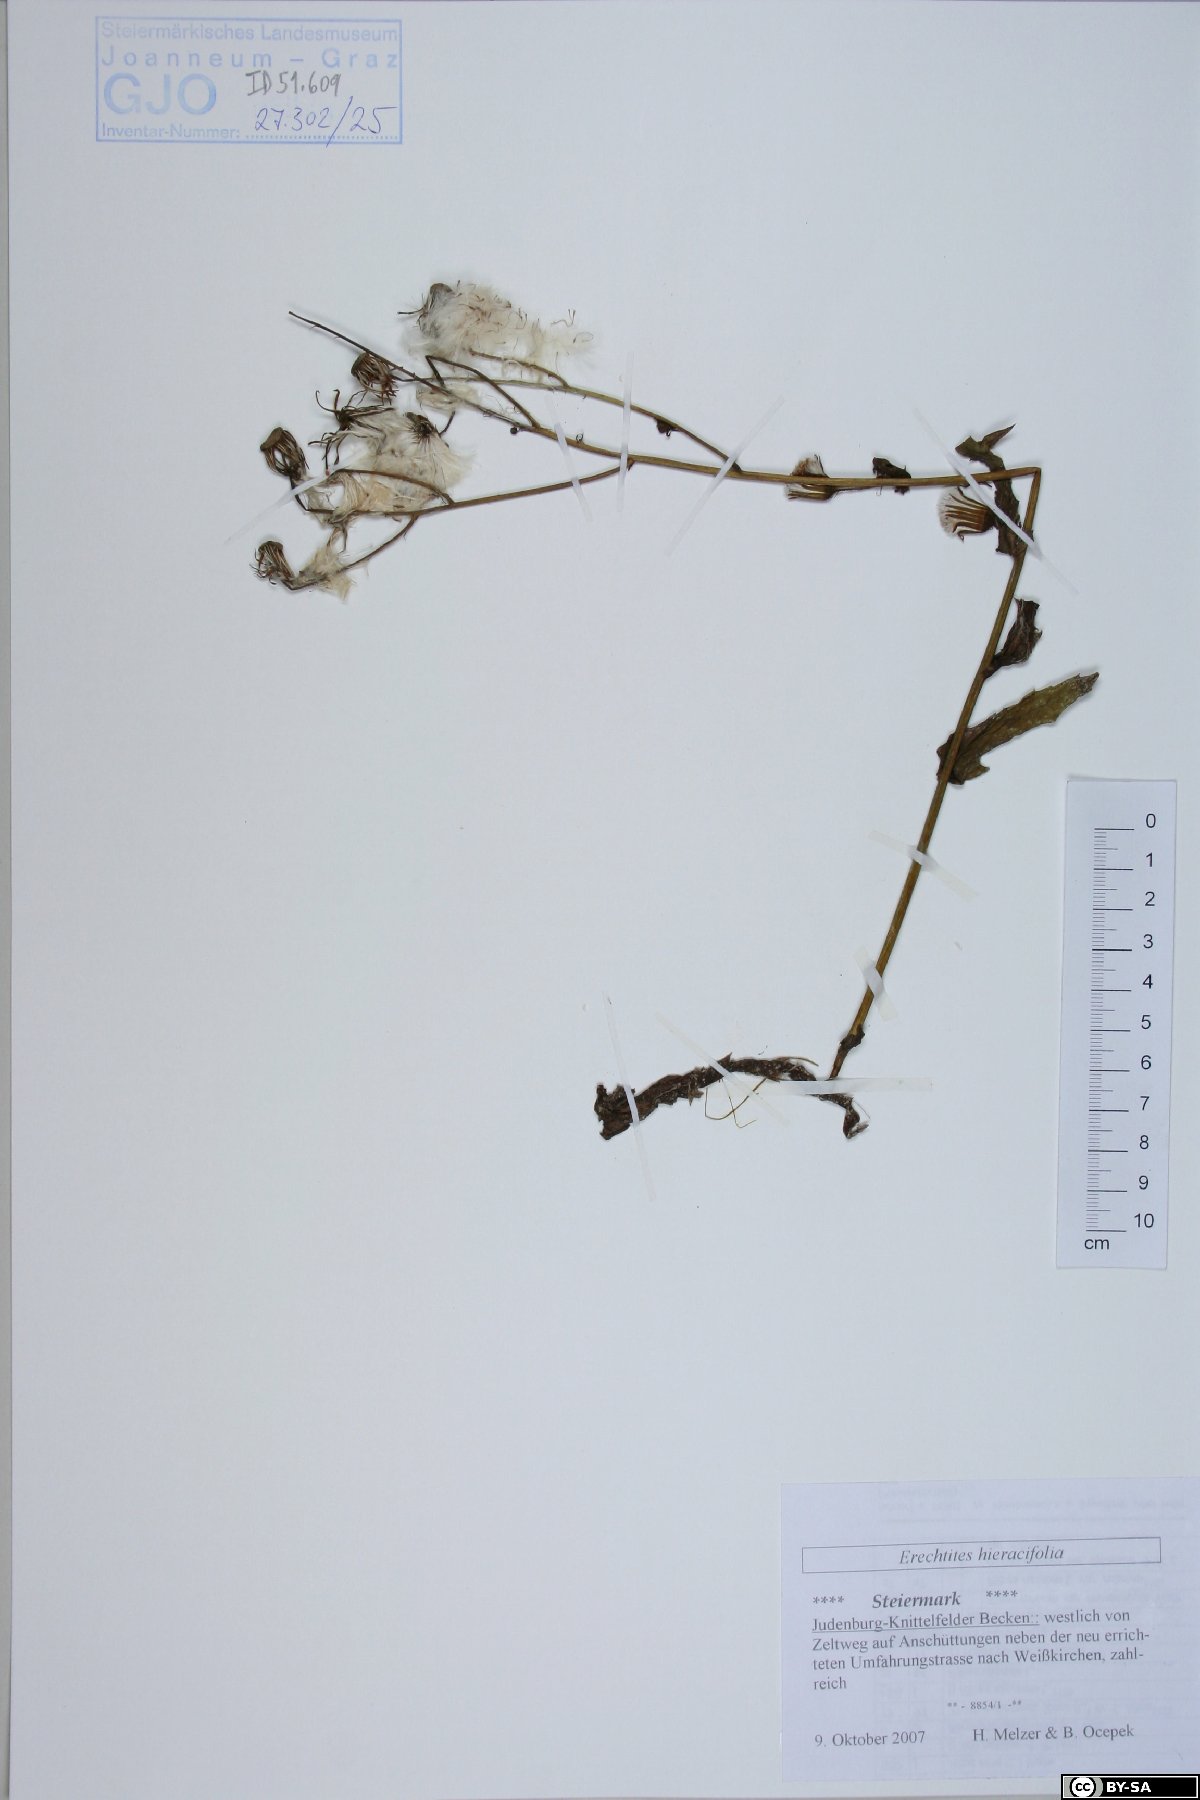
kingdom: Plantae
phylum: Tracheophyta
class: Magnoliopsida
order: Asterales
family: Asteraceae
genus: Erechtites
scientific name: Erechtites hieraciifolius
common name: American burnweed
